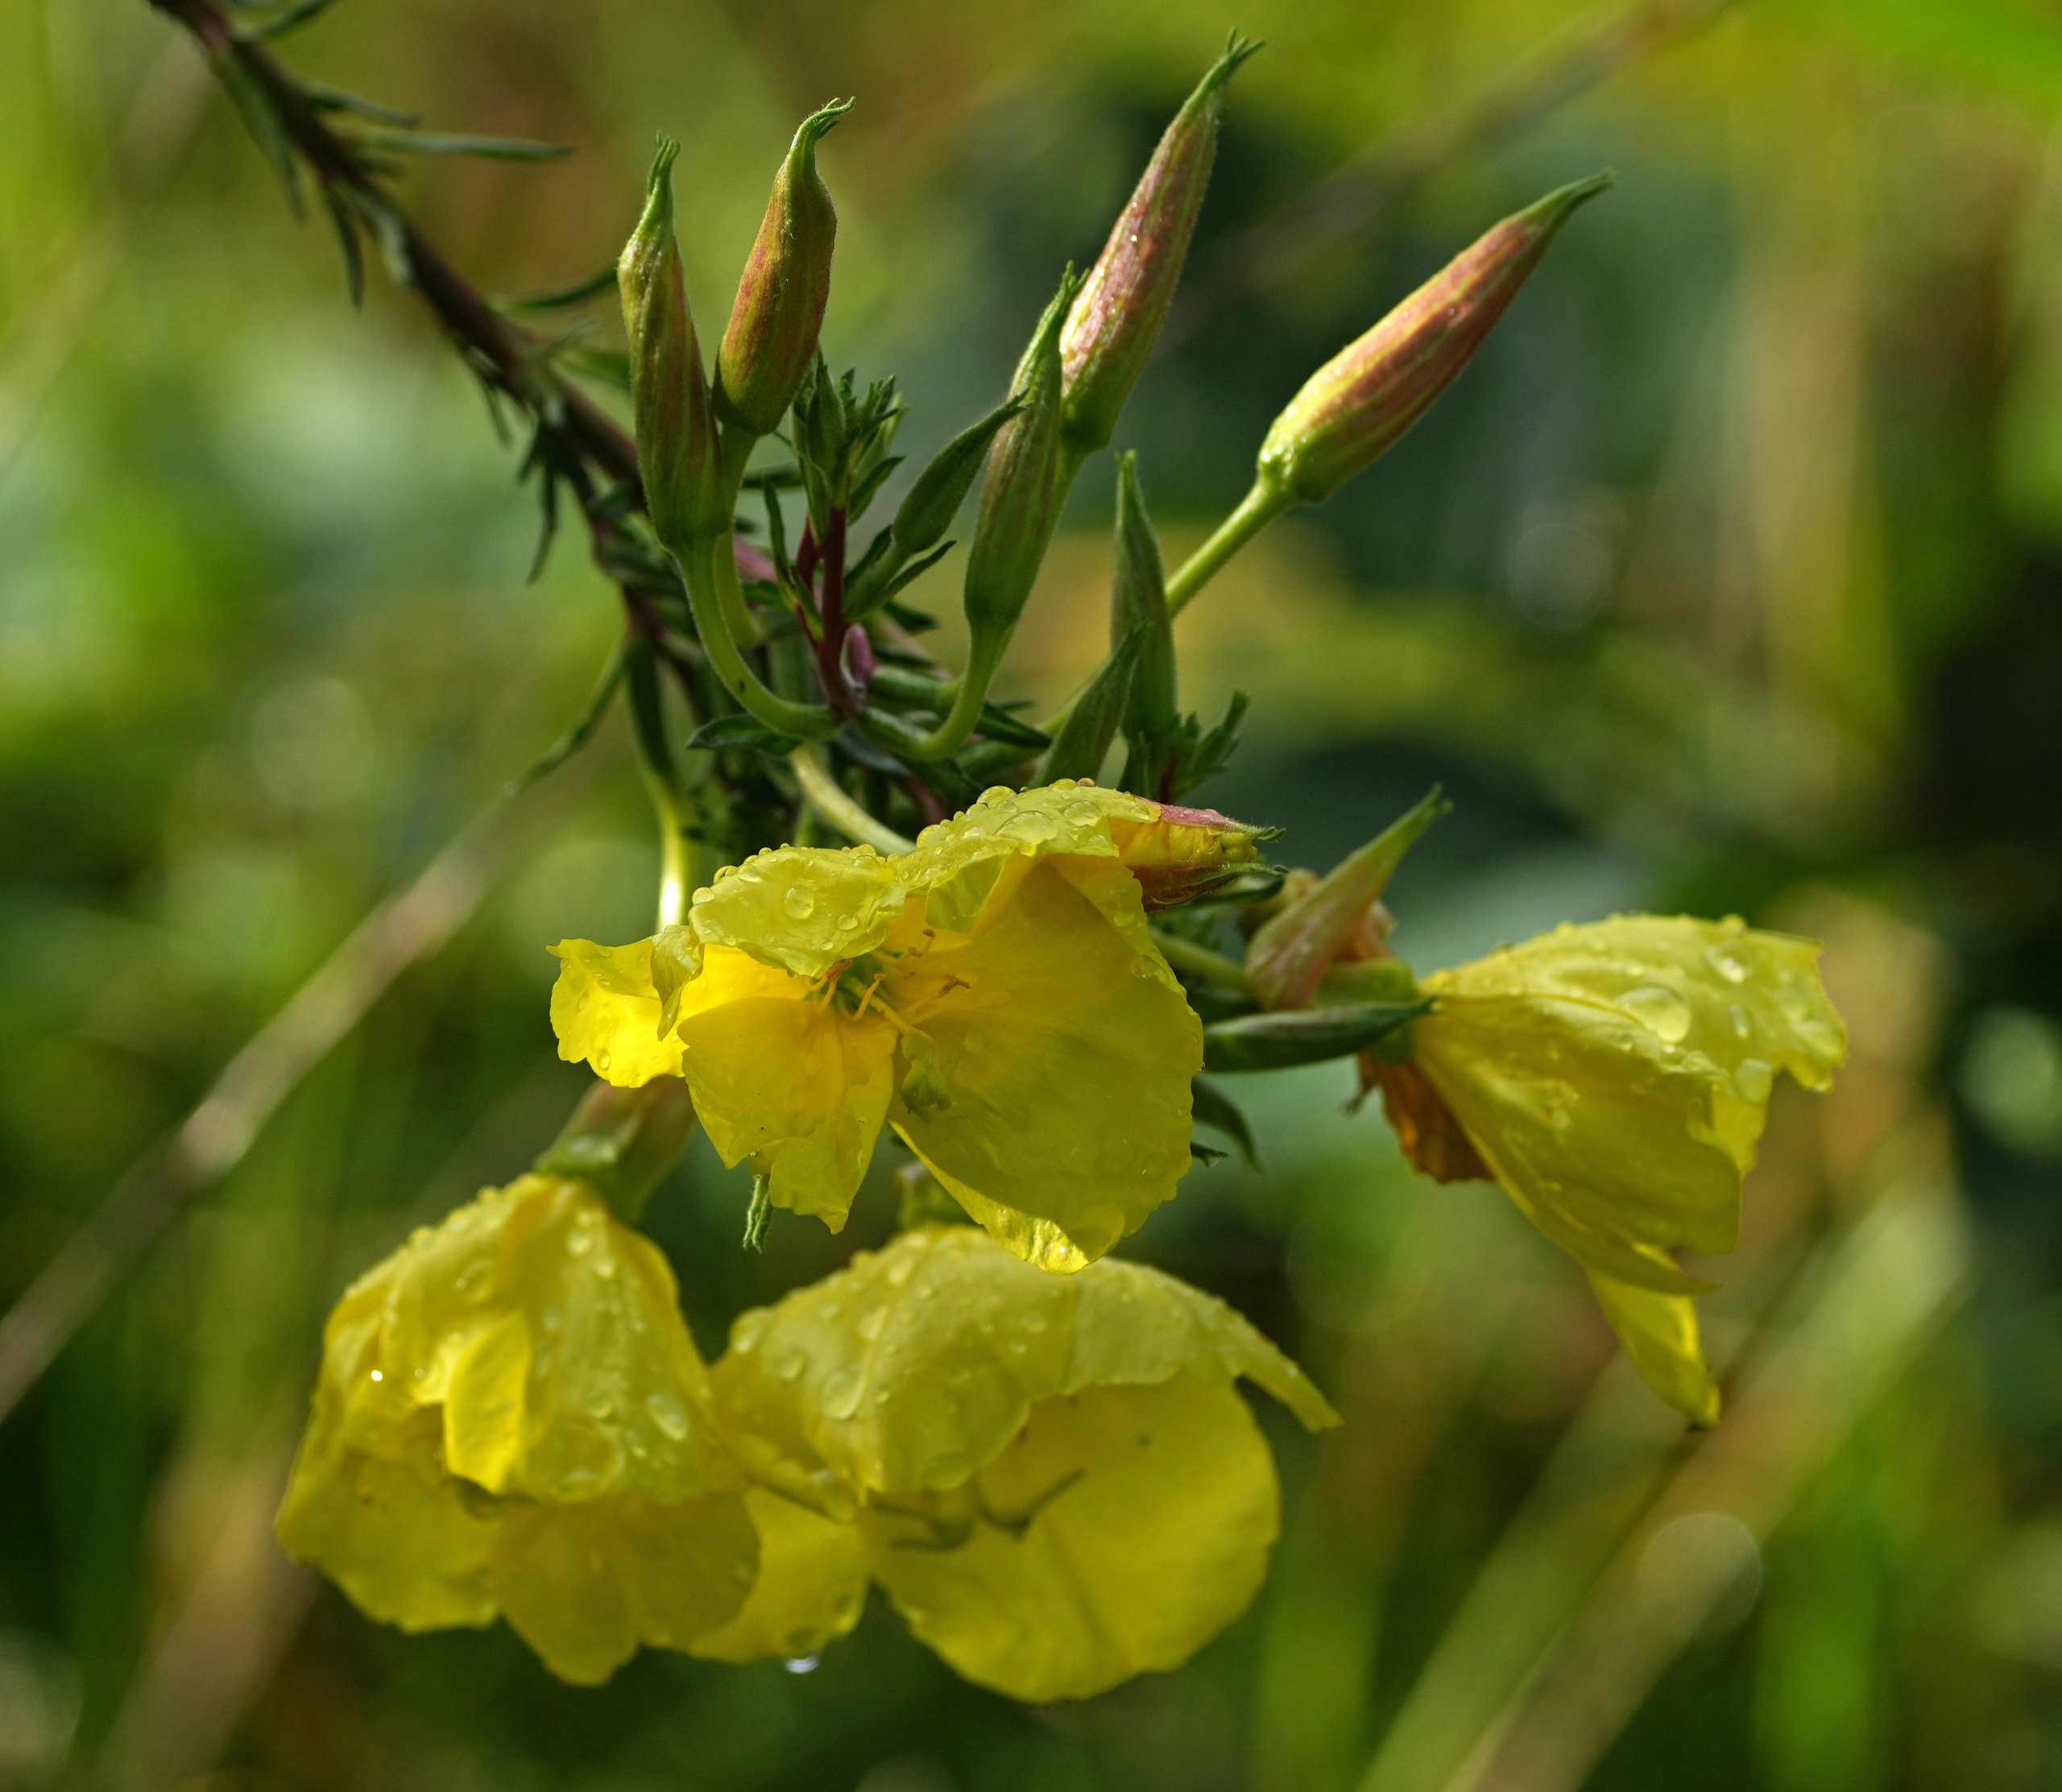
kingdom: Plantae
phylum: Tracheophyta
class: Magnoliopsida
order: Myrtales
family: Onagraceae
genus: Oenothera
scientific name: Oenothera glazioviana
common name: Kæmpe-natlys
